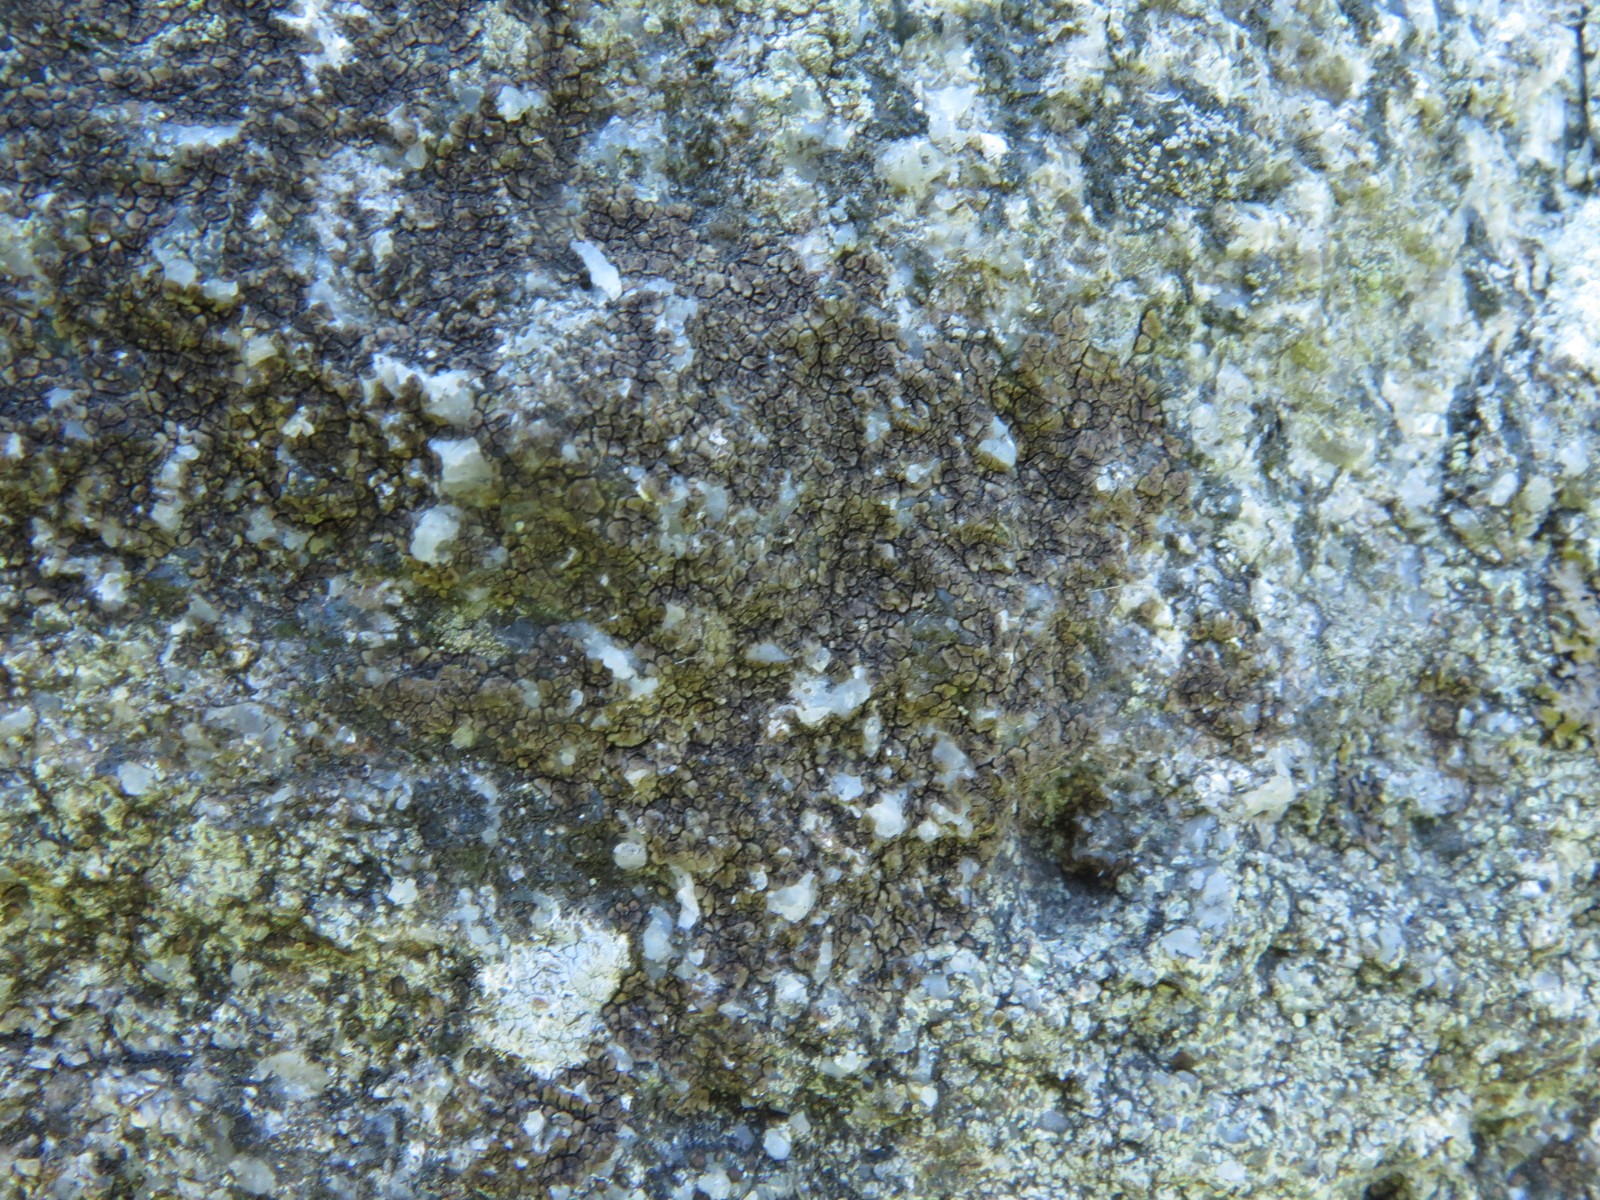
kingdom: Fungi
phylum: Ascomycota
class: Lecanoromycetes
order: Acarosporales
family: Acarosporaceae
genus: Acarospora
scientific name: Acarospora fuscata
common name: brun småsporelav
